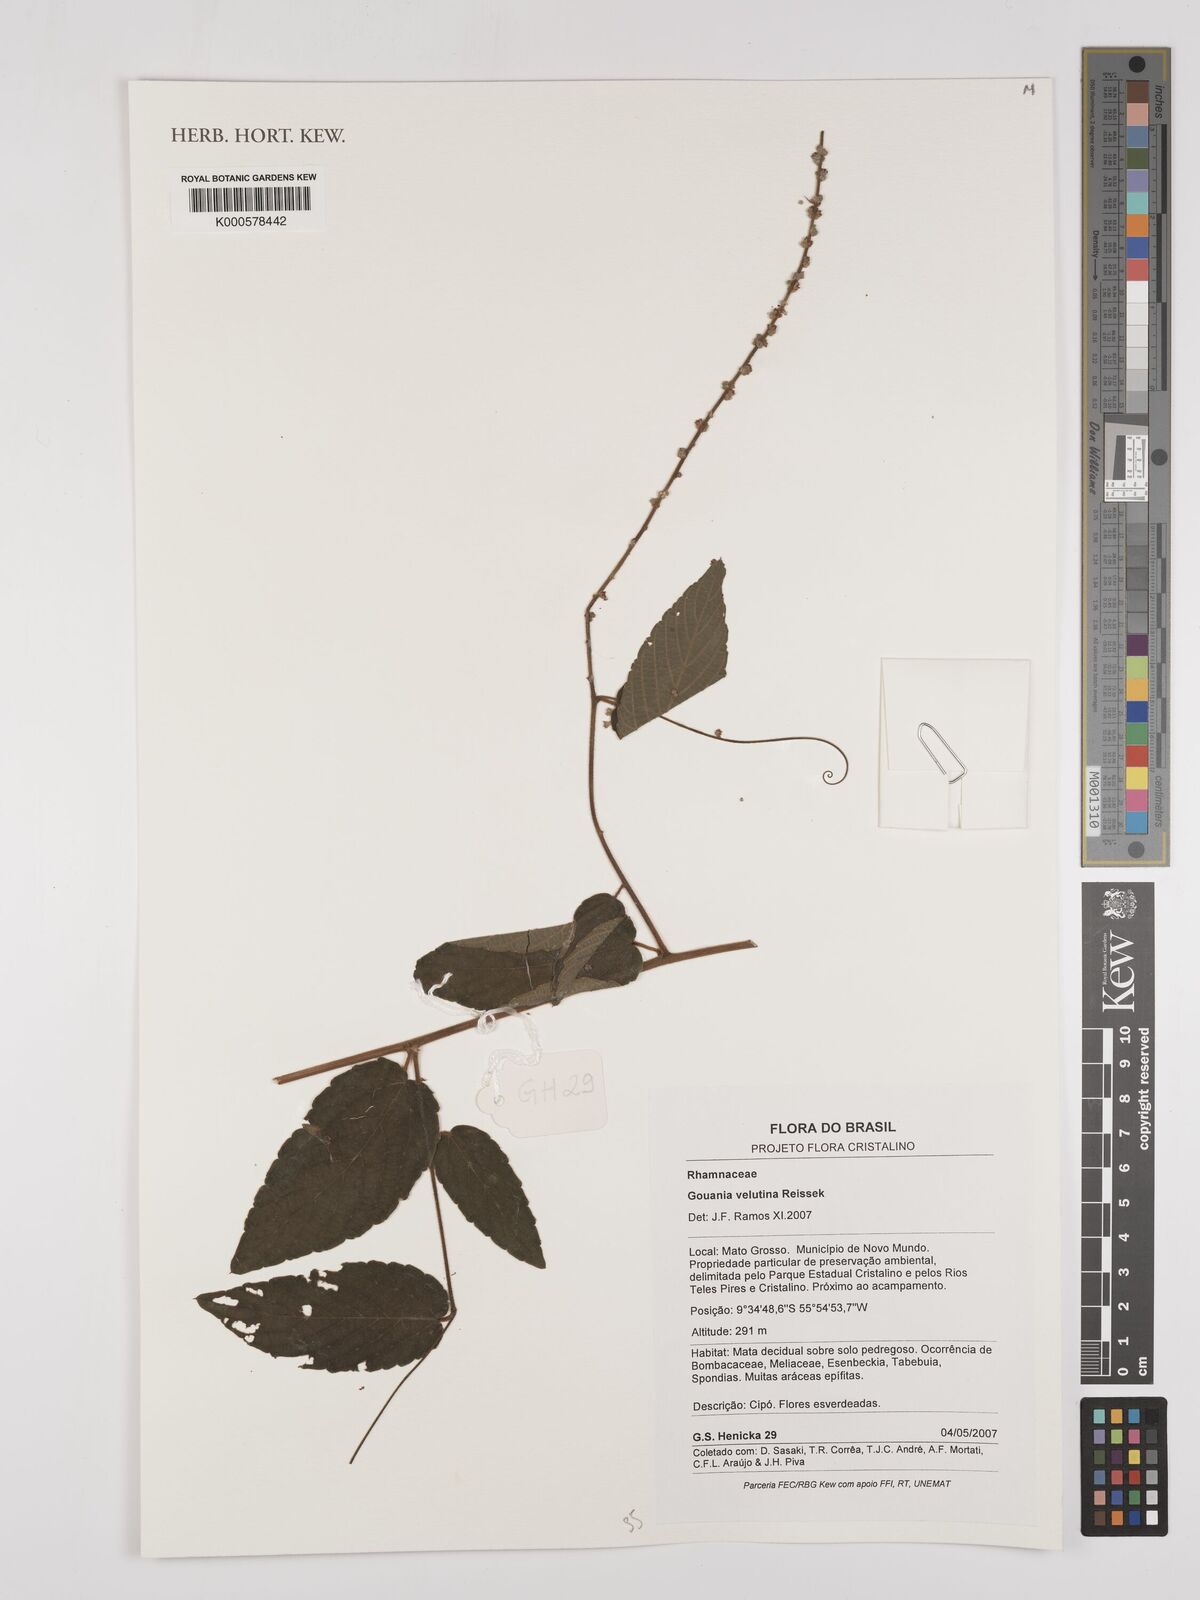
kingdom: Plantae
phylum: Tracheophyta
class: Magnoliopsida
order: Rosales
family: Rhamnaceae
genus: Gouania
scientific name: Gouania velutina
